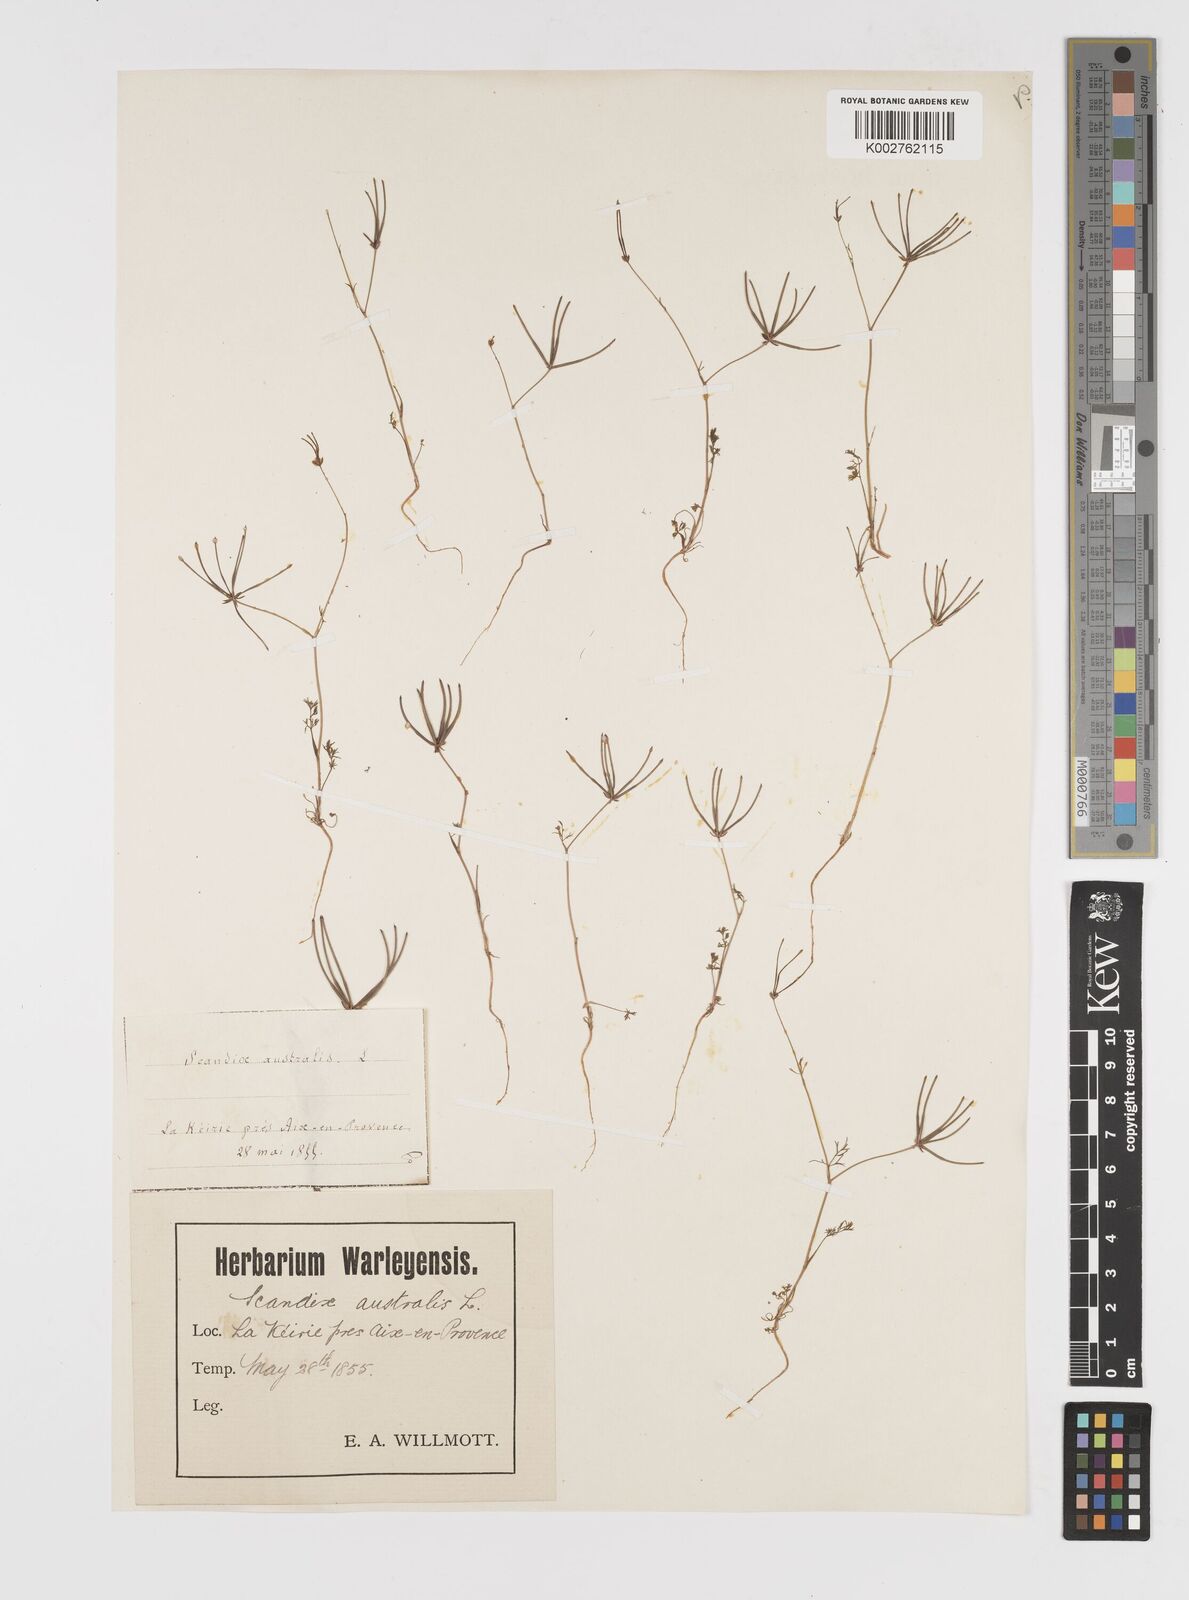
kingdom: Plantae
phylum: Tracheophyta
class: Magnoliopsida
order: Apiales
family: Apiaceae
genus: Scandix
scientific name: Scandix australis
